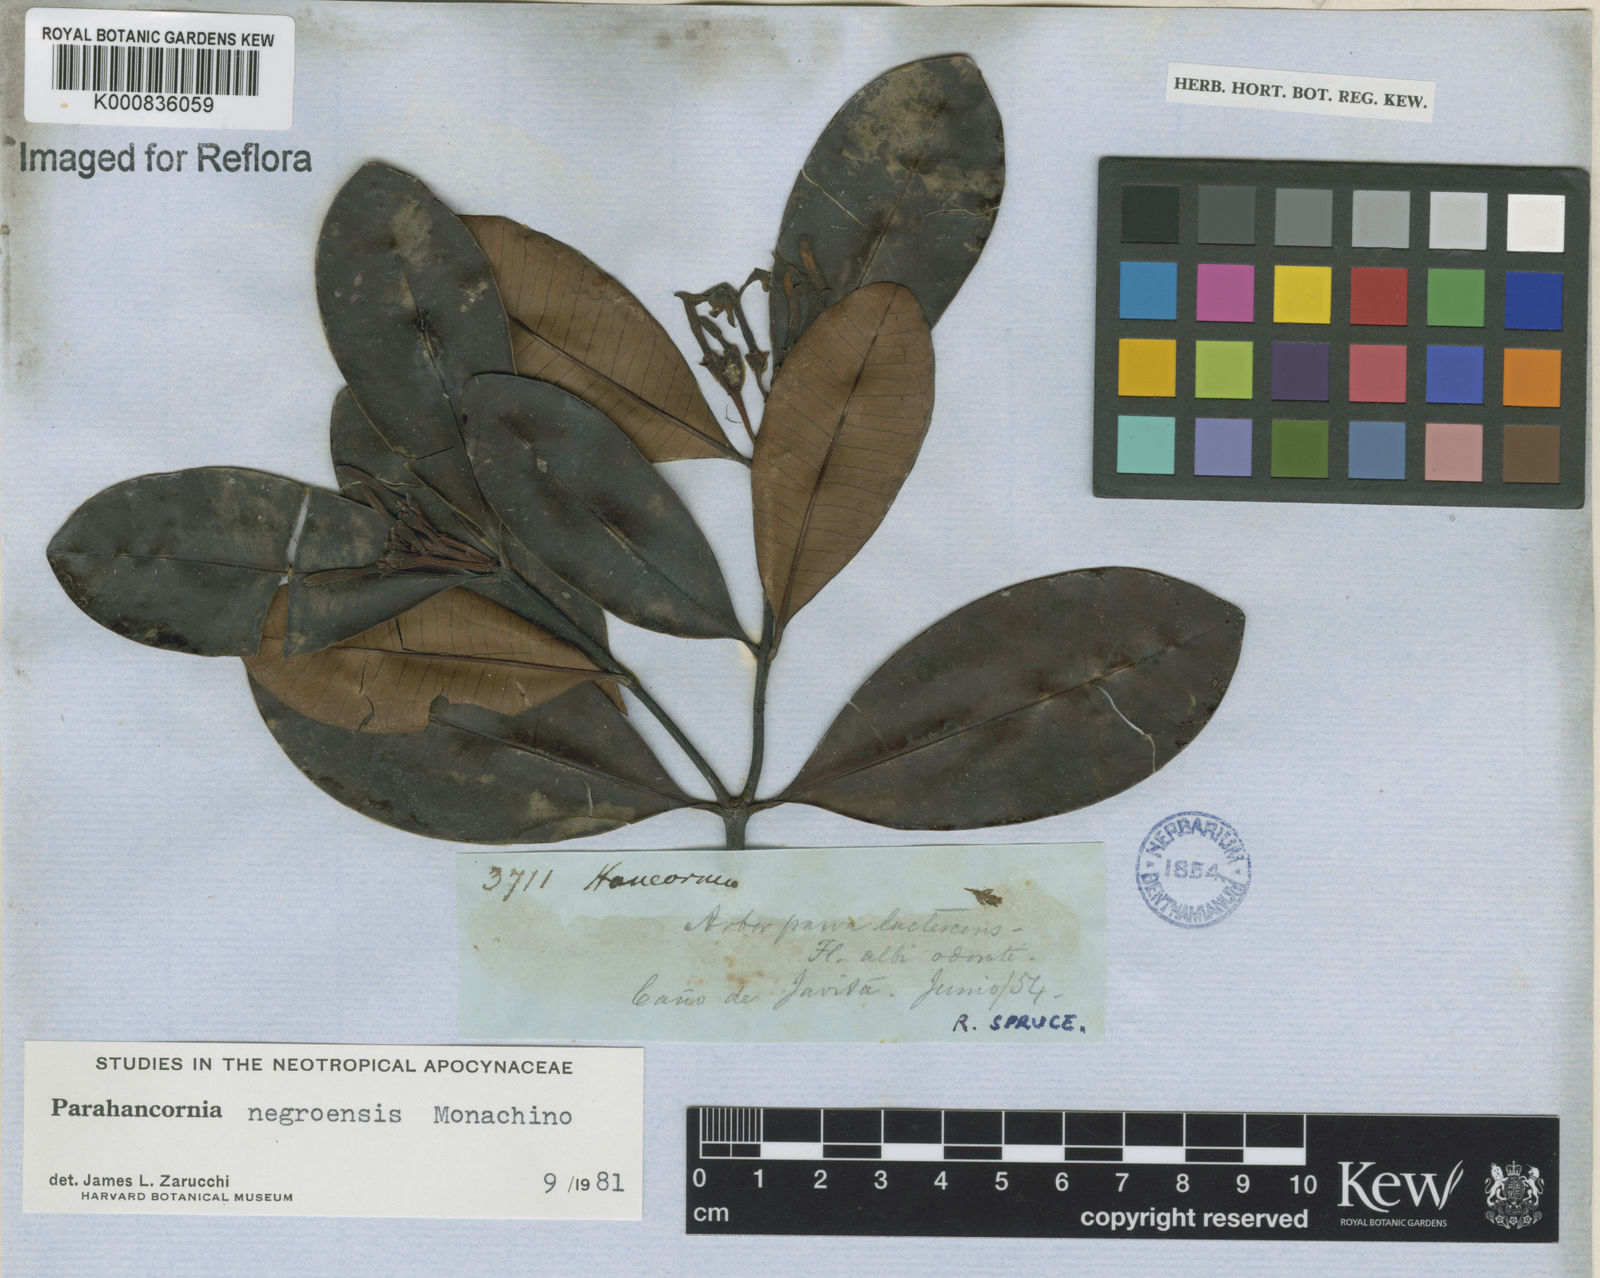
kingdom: Plantae
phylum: Tracheophyta
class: Magnoliopsida
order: Gentianales
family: Apocynaceae
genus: Parahancornia
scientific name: Parahancornia negroensis
